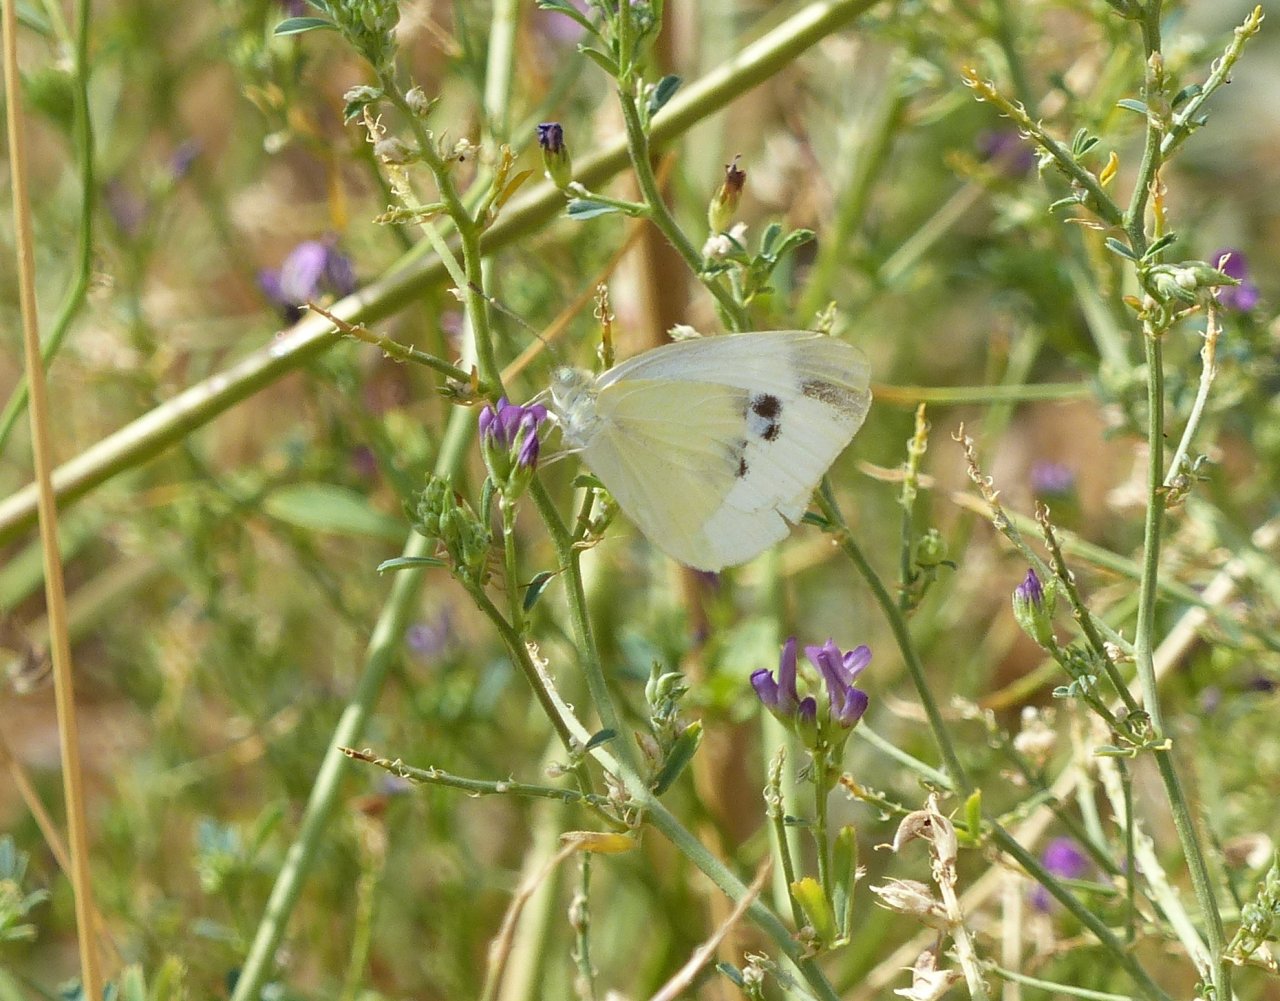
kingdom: Animalia
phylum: Arthropoda
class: Insecta
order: Lepidoptera
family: Pieridae
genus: Pieris
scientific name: Pieris rapae
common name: Cabbage White
